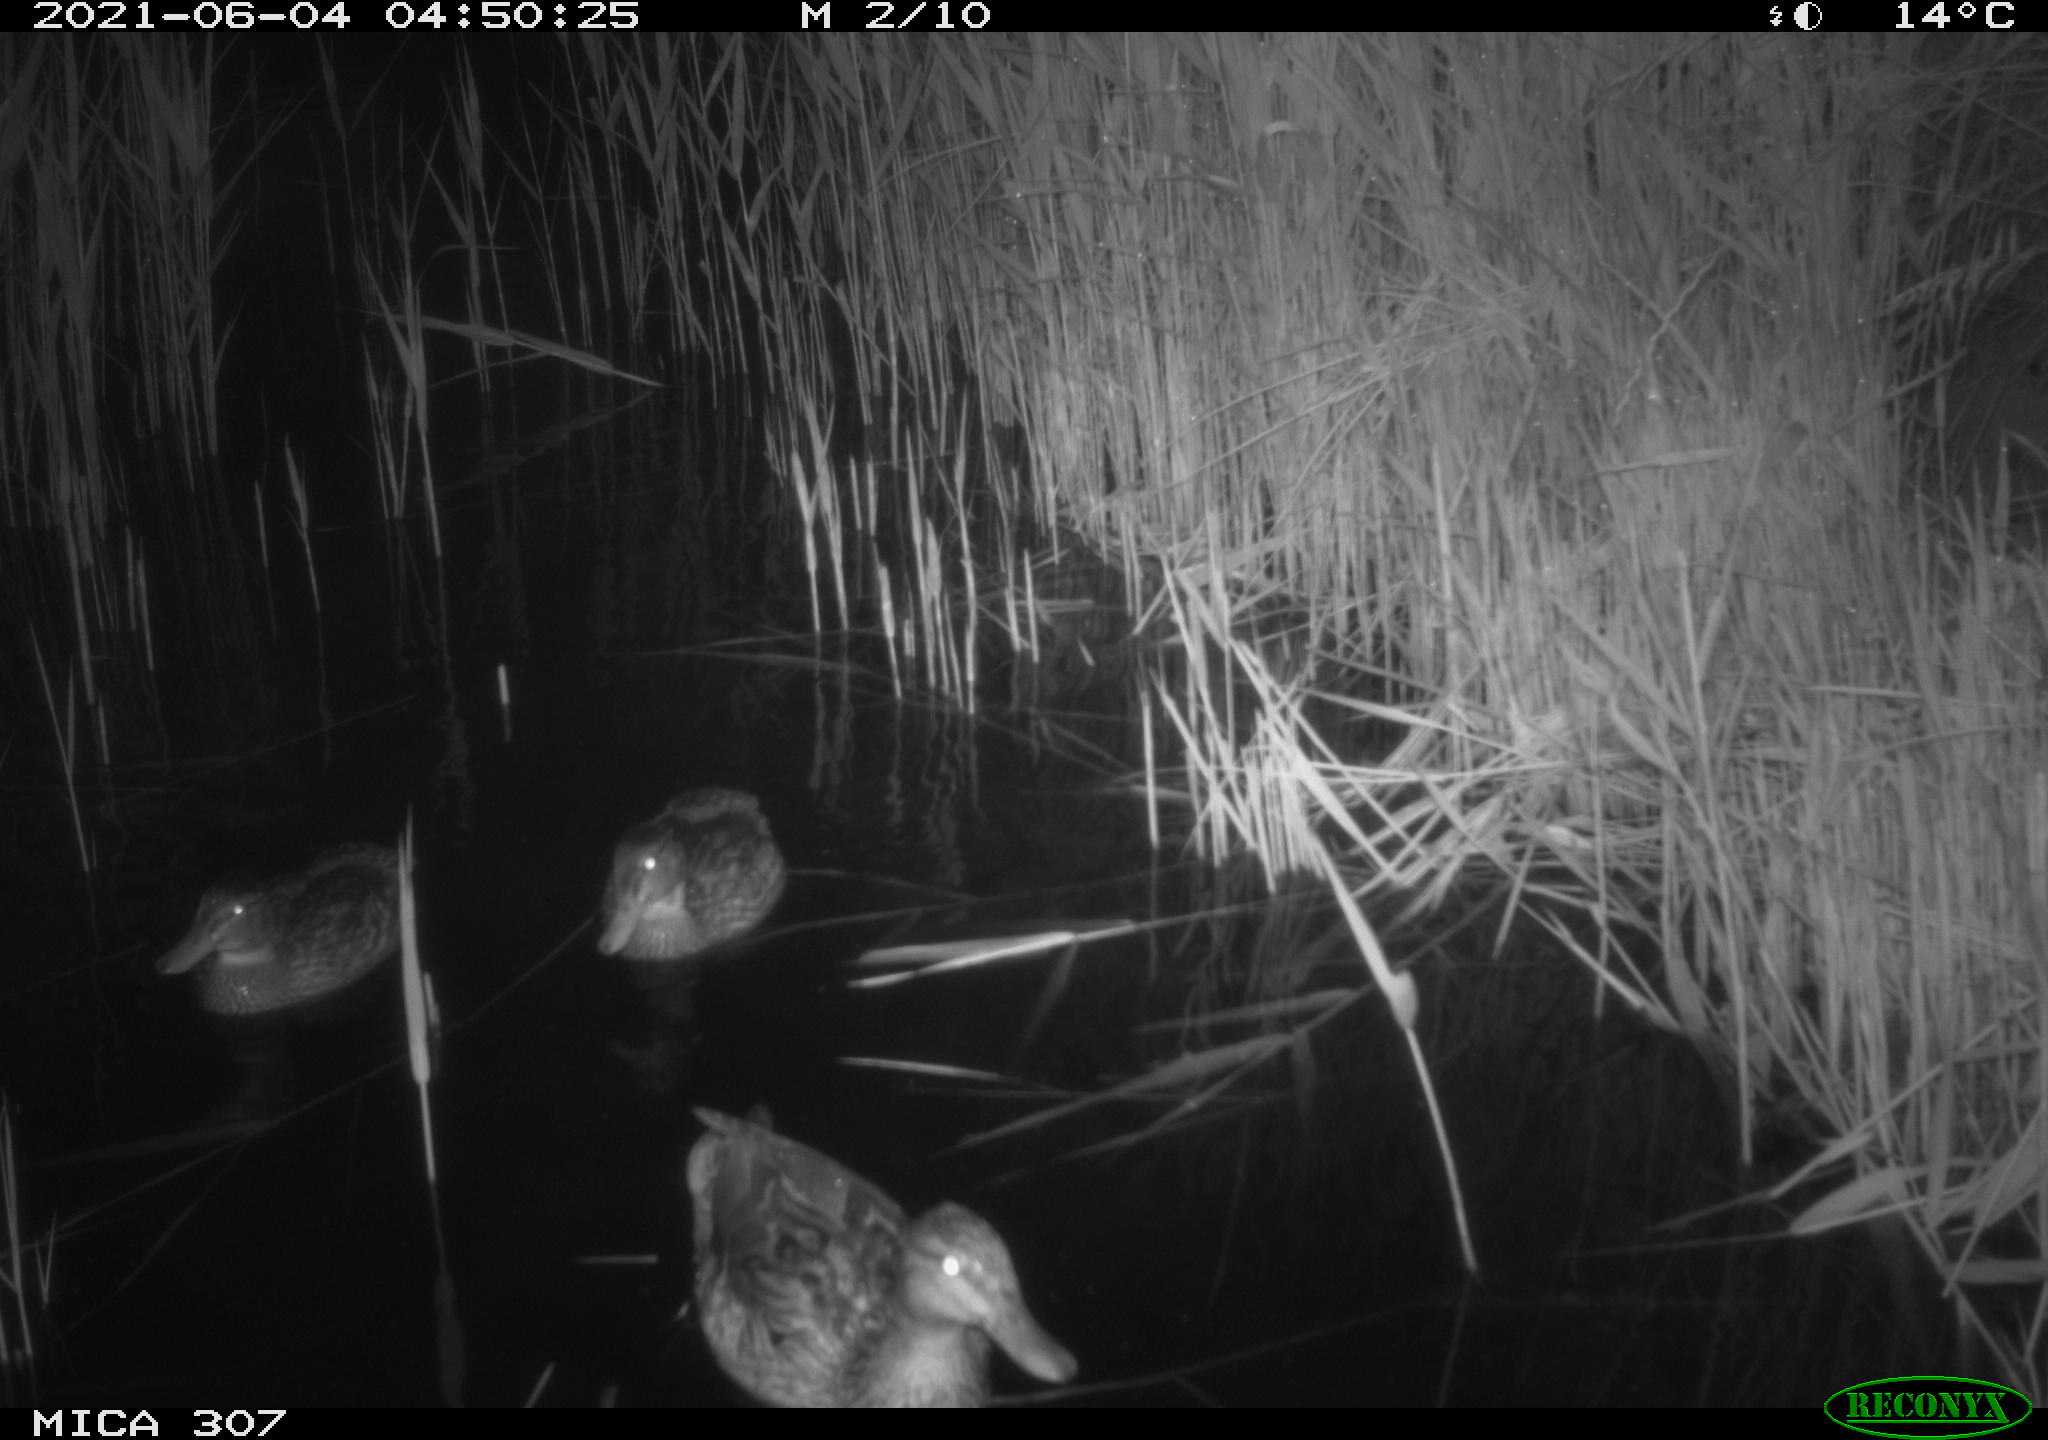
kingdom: Animalia
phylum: Chordata
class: Aves
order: Anseriformes
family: Anatidae
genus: Anas
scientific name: Anas platyrhynchos
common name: Mallard
